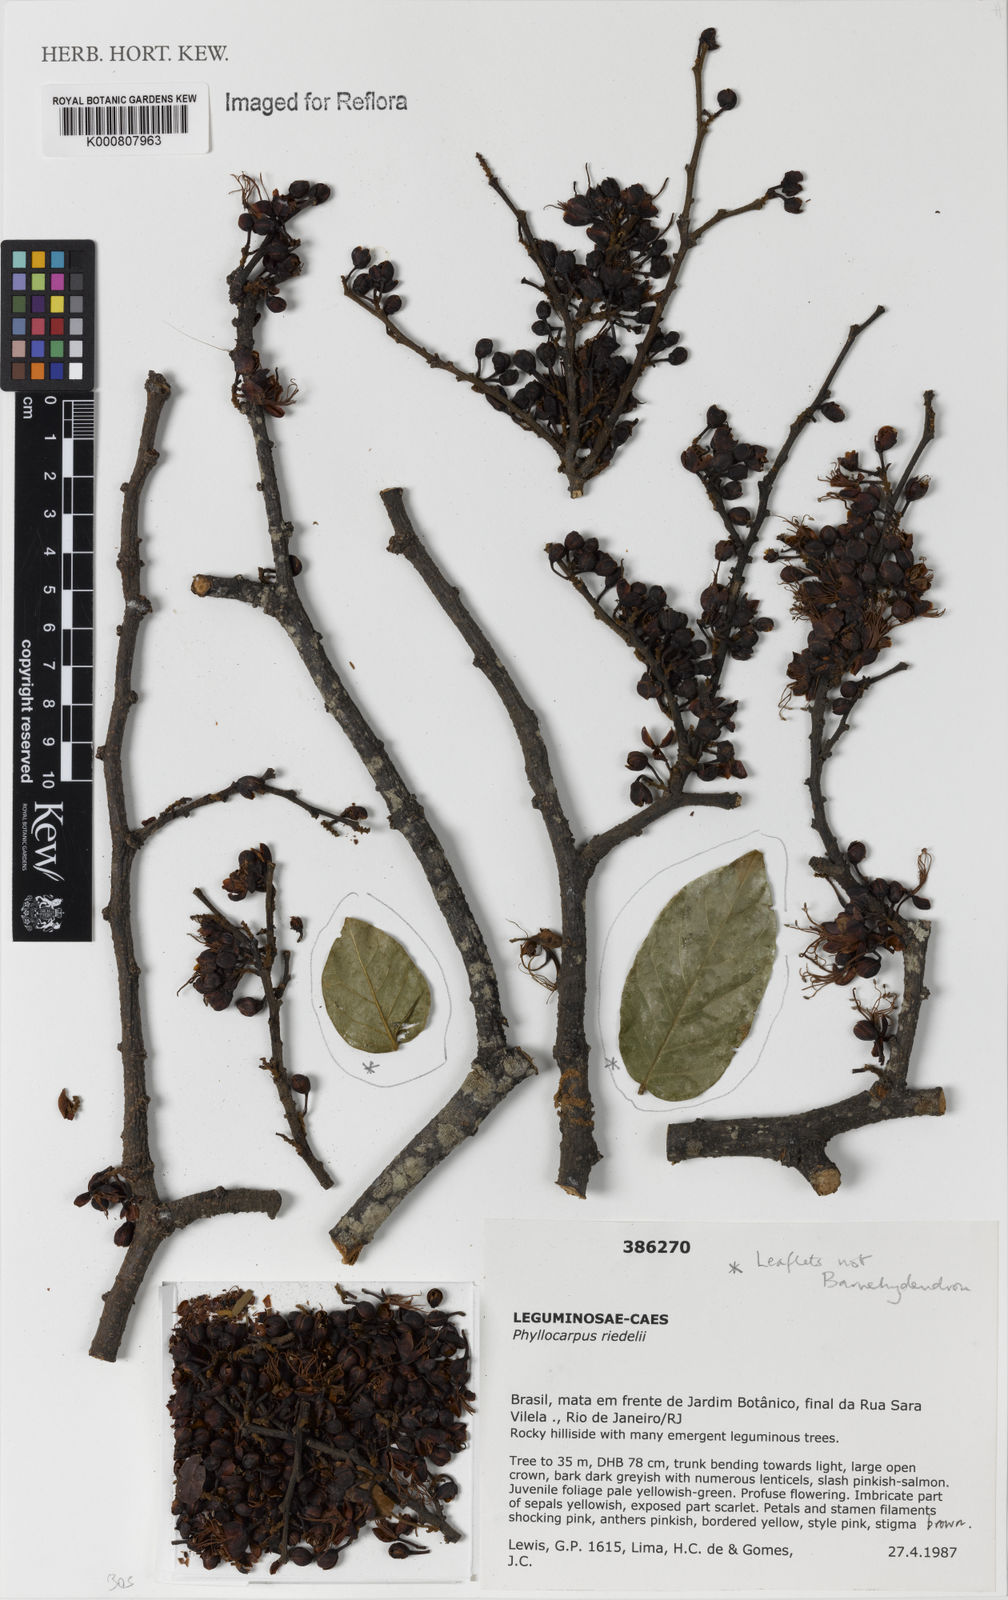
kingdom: Plantae
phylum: Tracheophyta
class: Magnoliopsida
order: Fabales
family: Fabaceae
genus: Barnebydendron
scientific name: Barnebydendron riedelii
